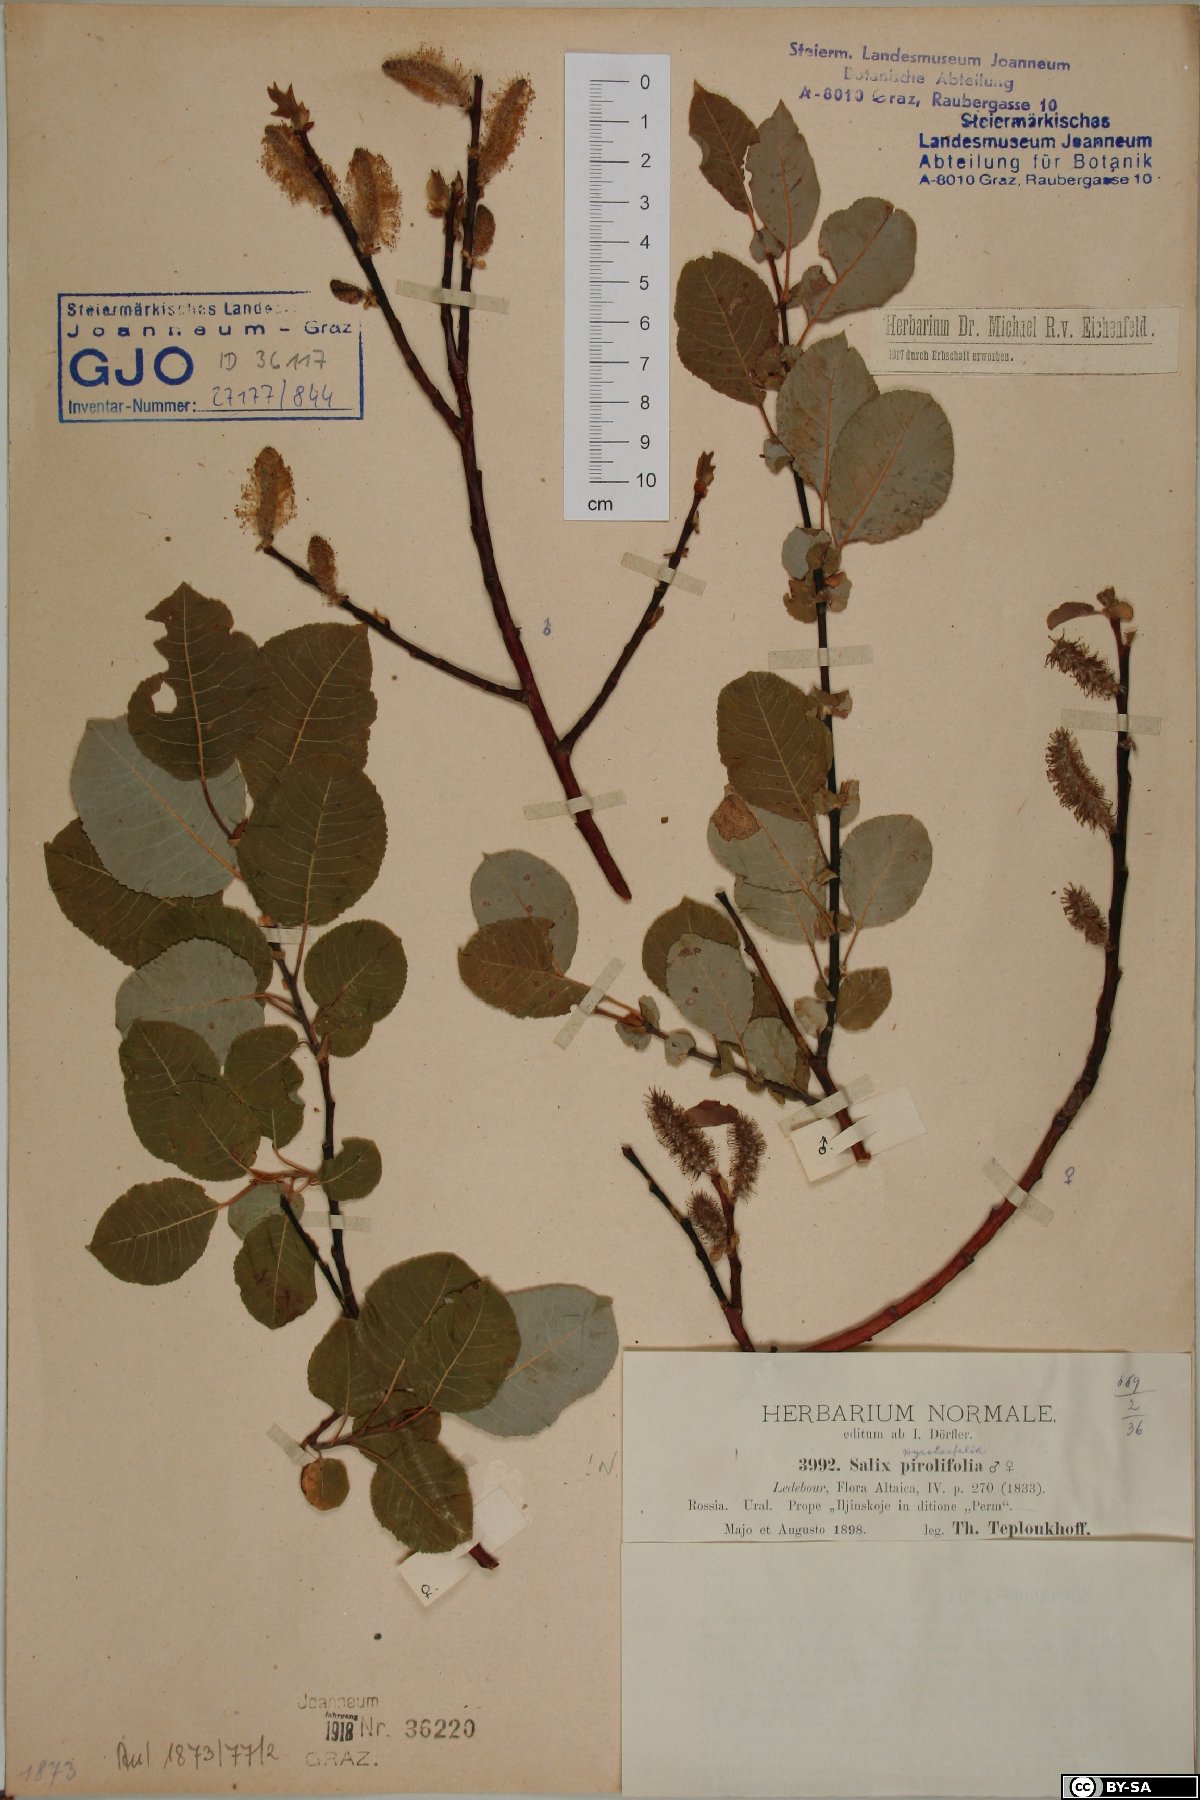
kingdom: Plantae
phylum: Tracheophyta
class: Magnoliopsida
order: Malpighiales
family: Salicaceae
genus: Salix
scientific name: Salix pyrolifolia
